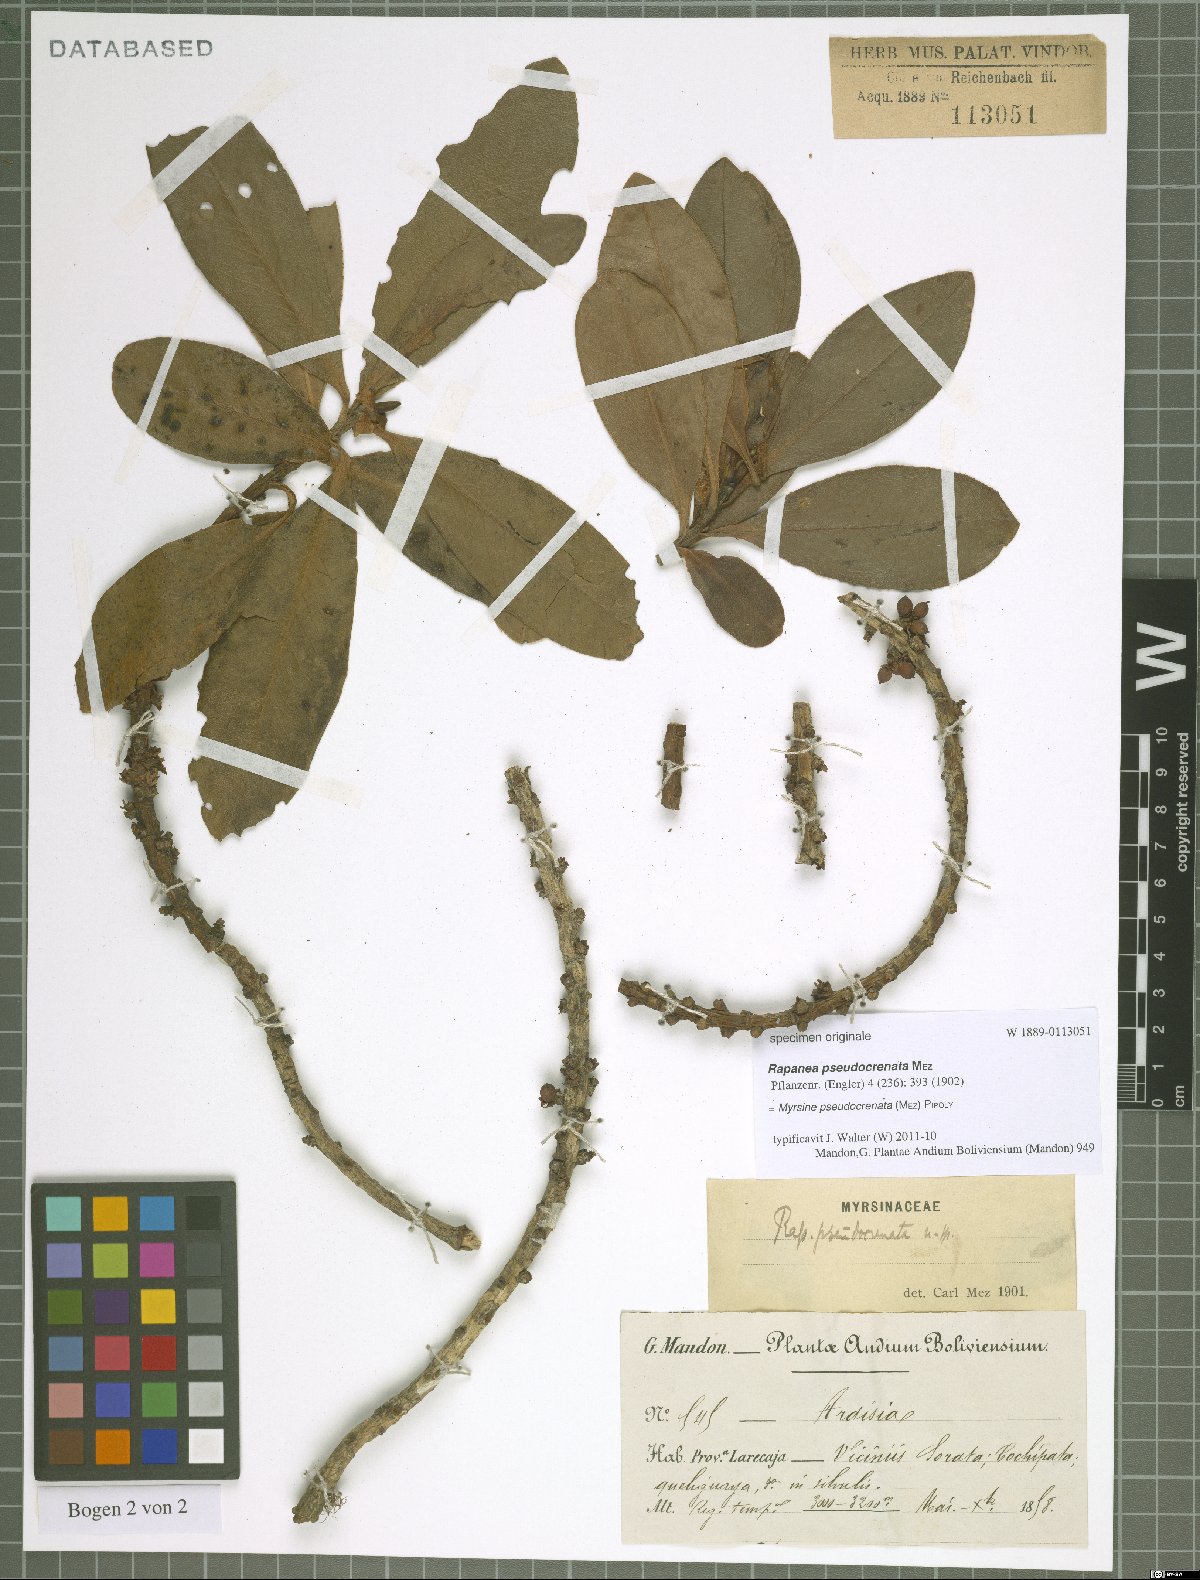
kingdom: Plantae
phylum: Tracheophyta
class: Magnoliopsida
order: Ericales
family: Primulaceae
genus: Myrsine
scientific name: Myrsine pseudocrenata
